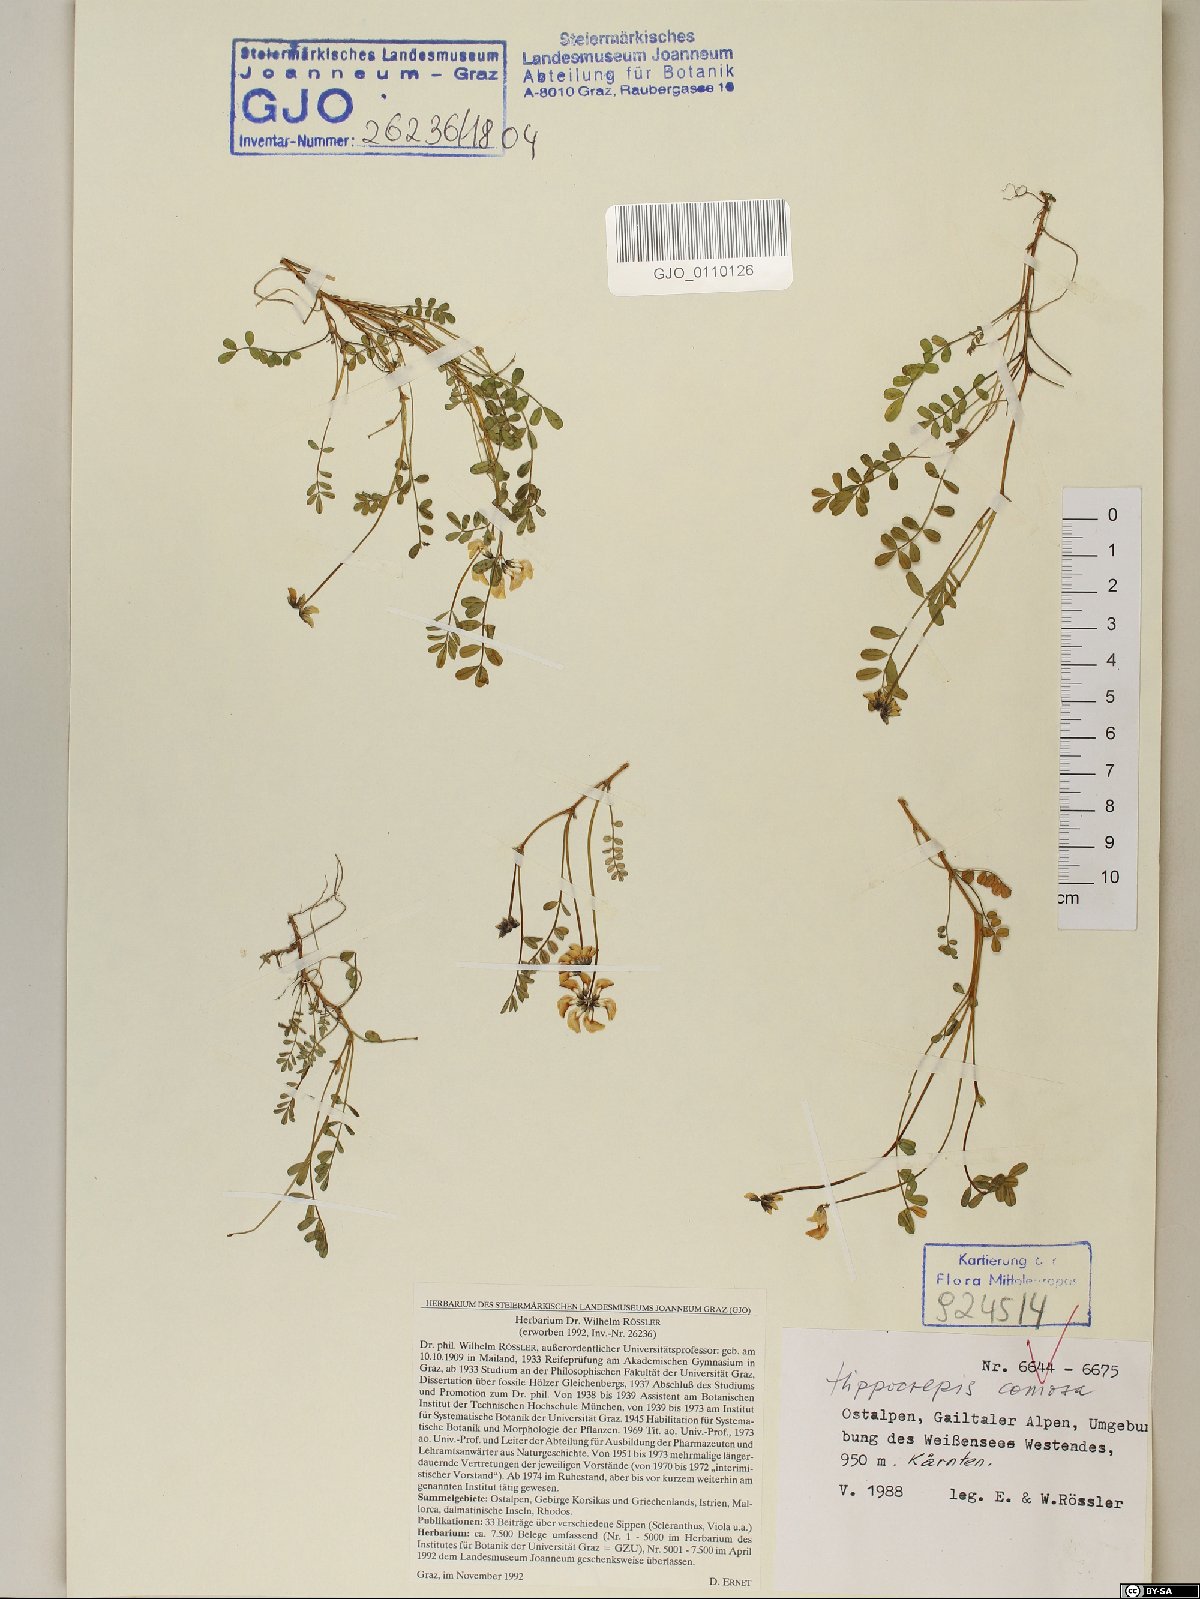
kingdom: Plantae
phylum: Tracheophyta
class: Magnoliopsida
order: Fabales
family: Fabaceae
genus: Hippocrepis
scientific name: Hippocrepis comosa
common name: Horseshoe vetch
